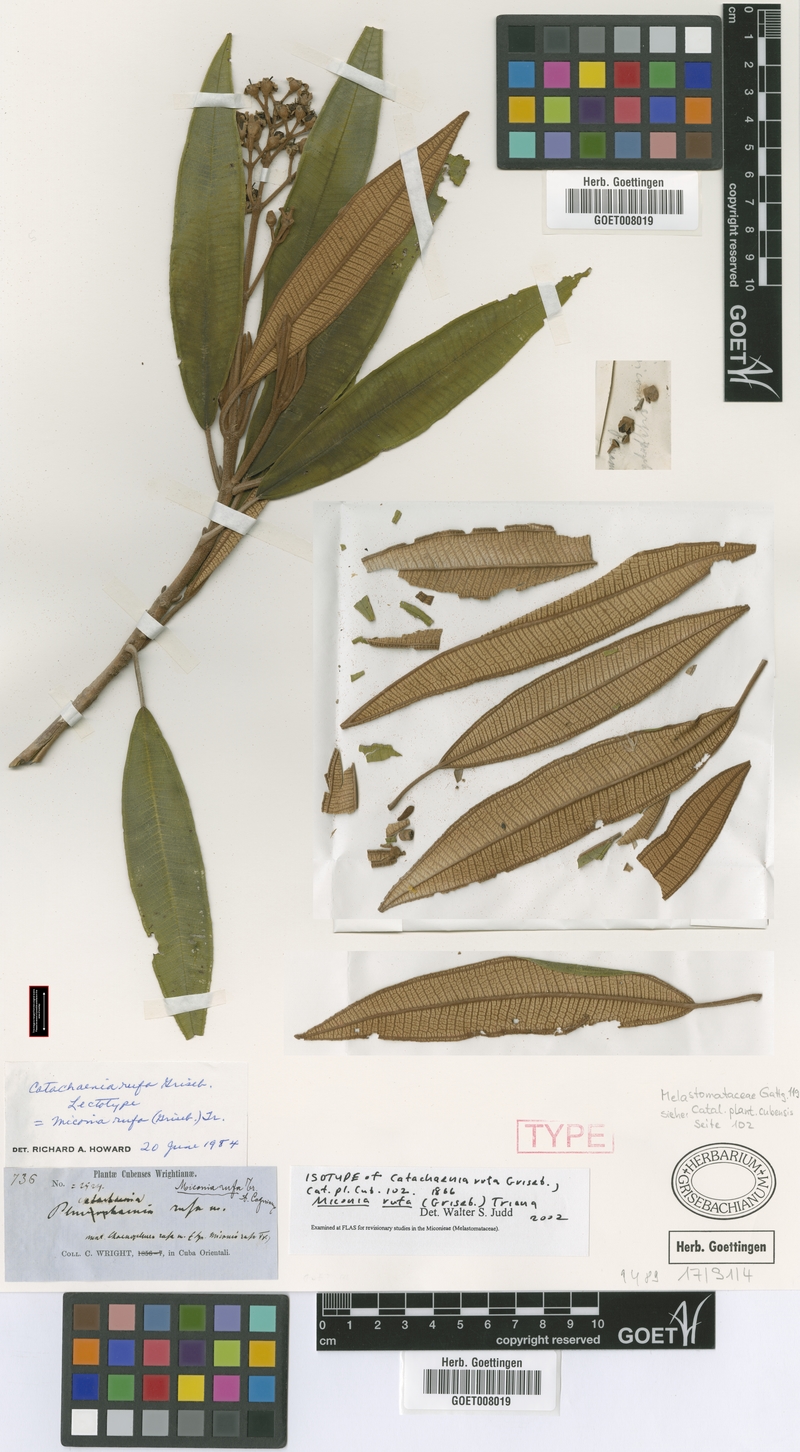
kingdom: Plantae
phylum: Tracheophyta
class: Magnoliopsida
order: Myrtales
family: Melastomataceae
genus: Miconia
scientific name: Miconia rufa
